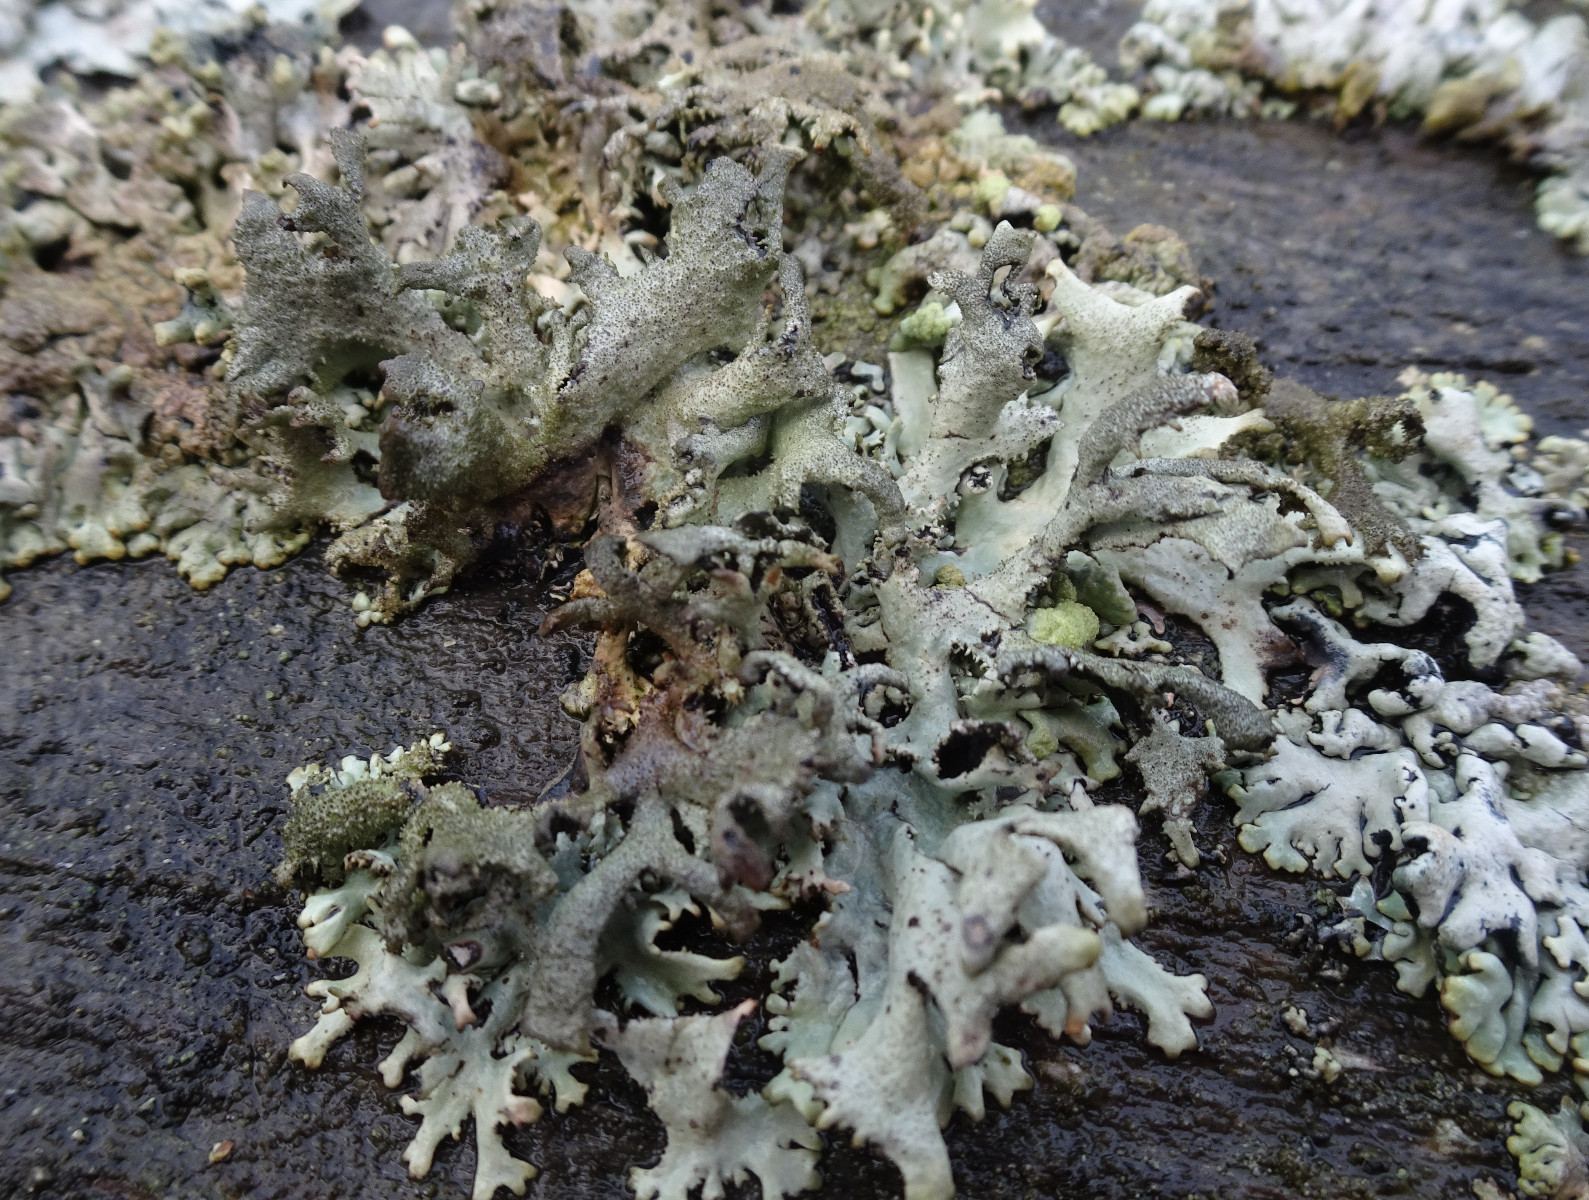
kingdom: Fungi
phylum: Ascomycota
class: Lecanoromycetes
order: Lecanorales
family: Parmeliaceae
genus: Pseudevernia
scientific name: Pseudevernia furfuracea
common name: grå fyrrelav
